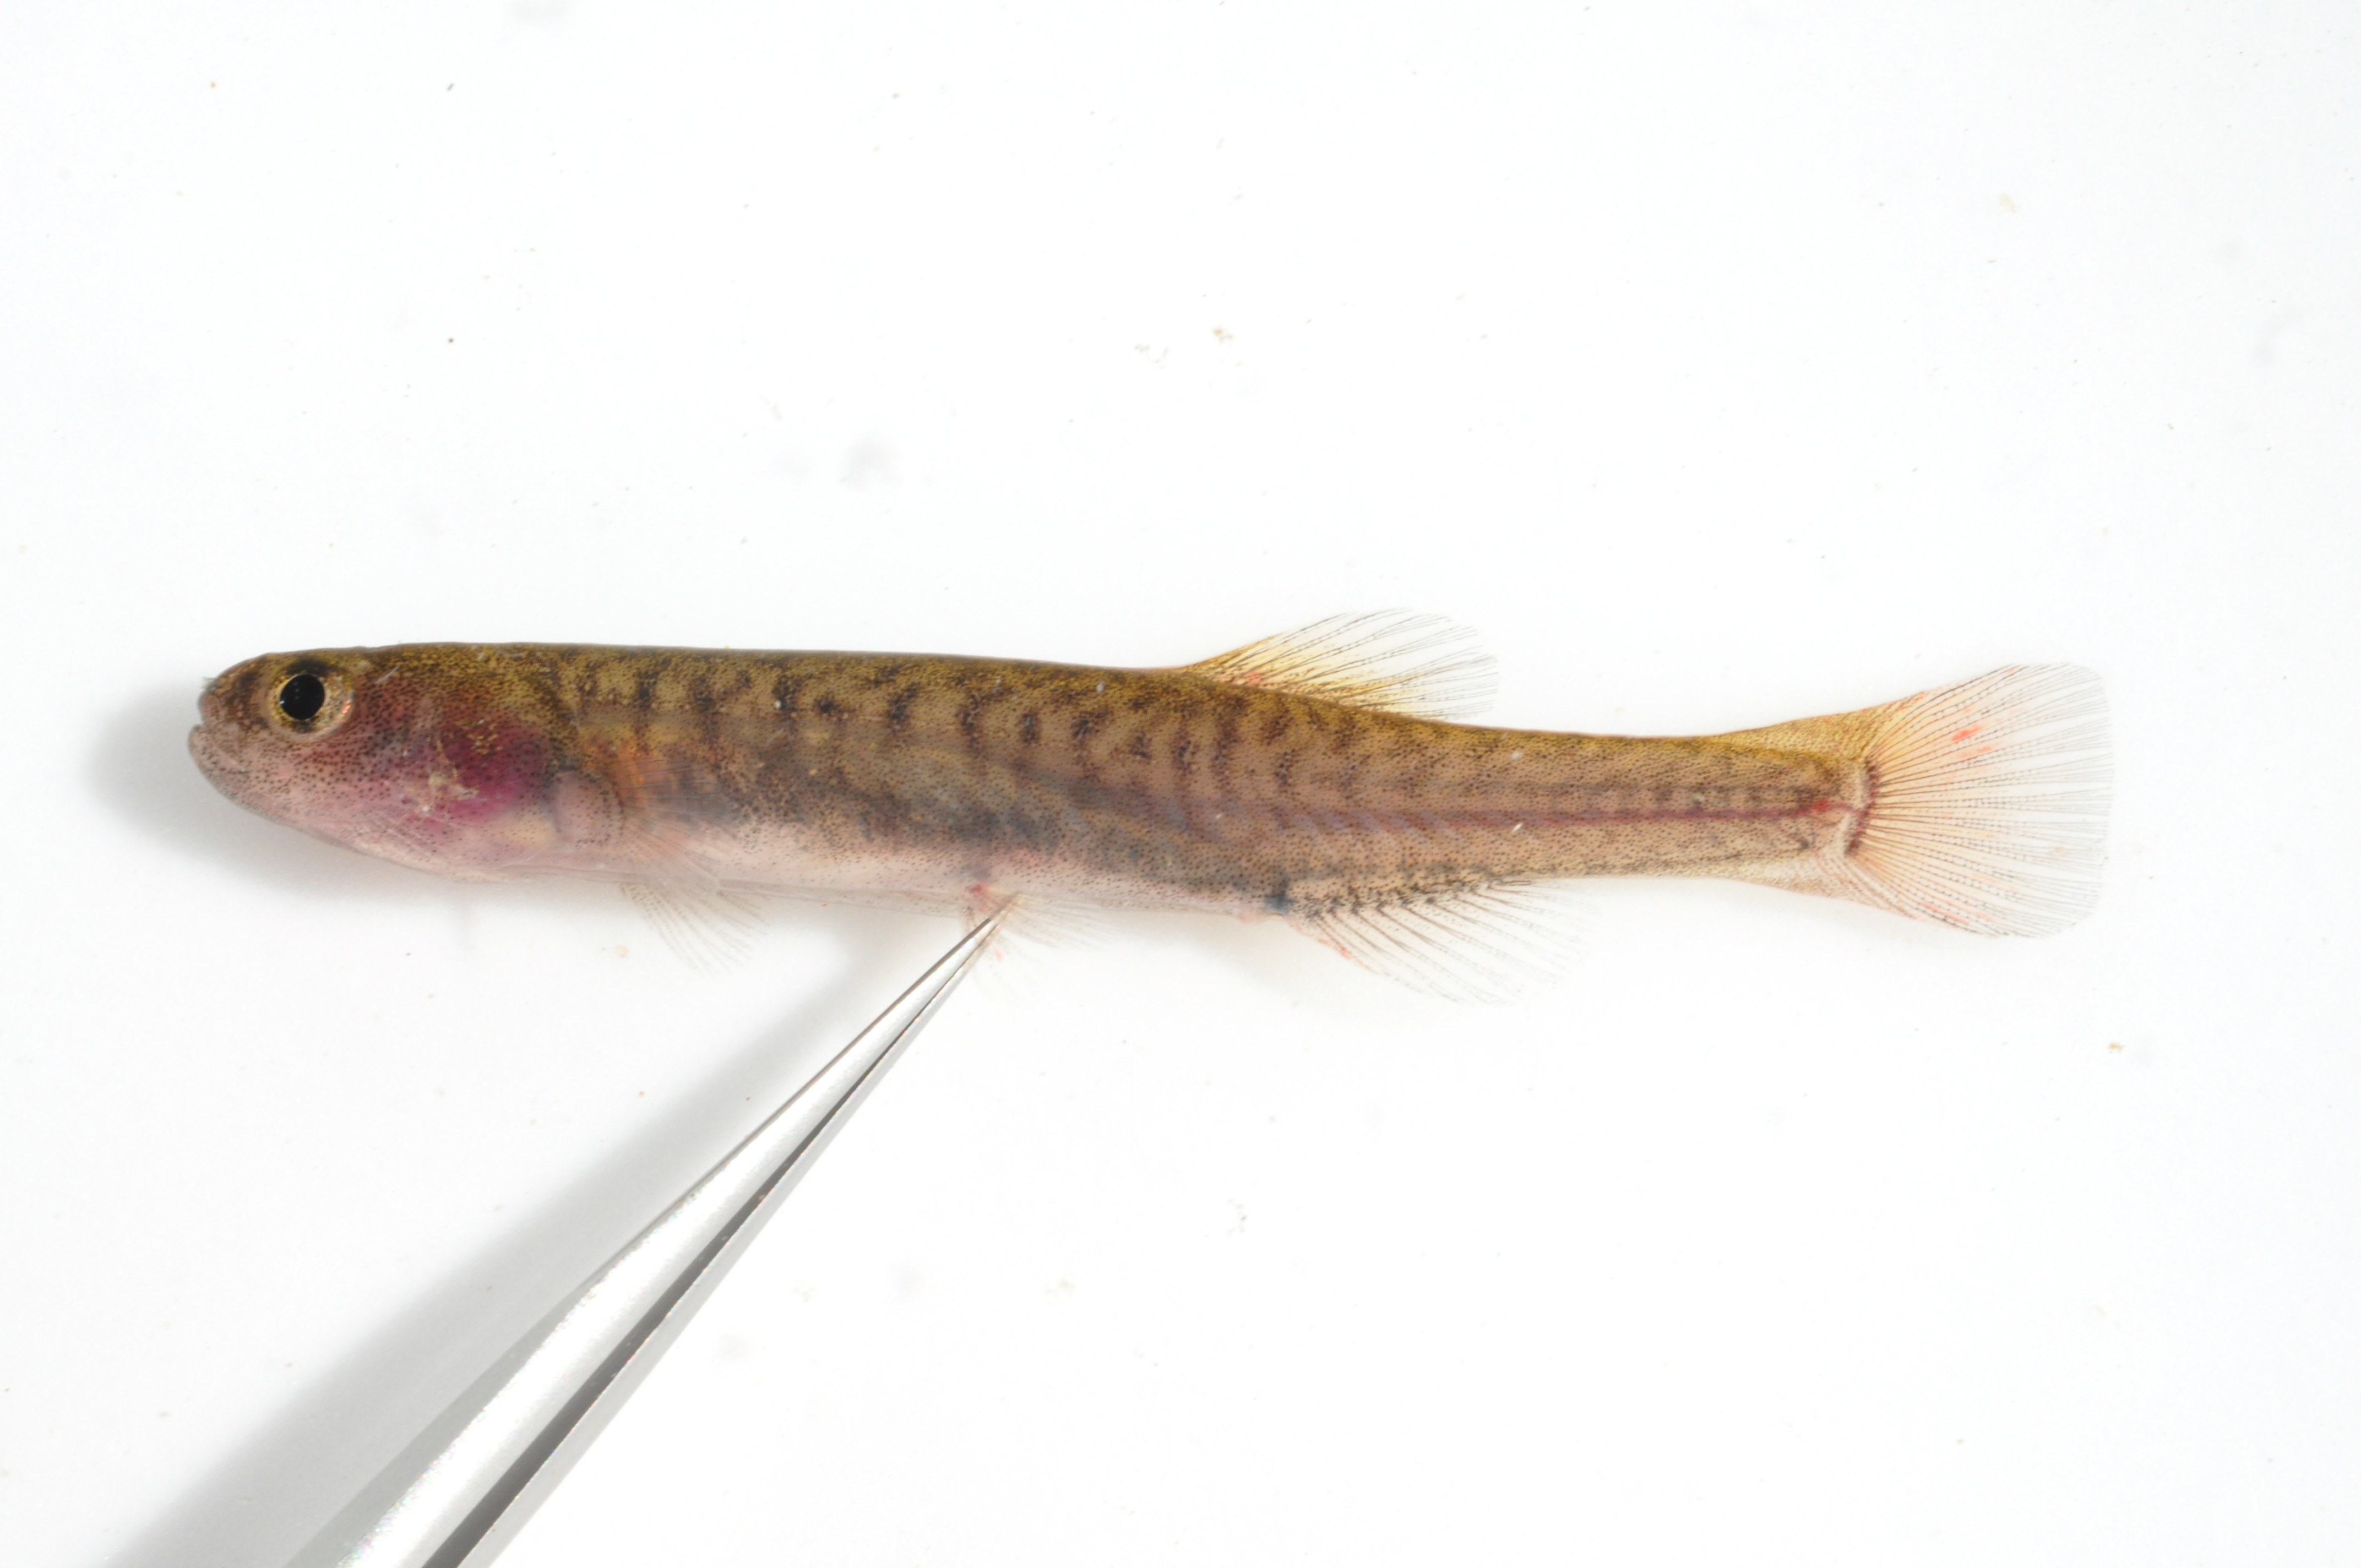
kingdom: Animalia
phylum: Chordata
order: Osmeriformes
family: Galaxiidae
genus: Galaxias
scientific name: Galaxias zebratus
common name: Cape galaxias
